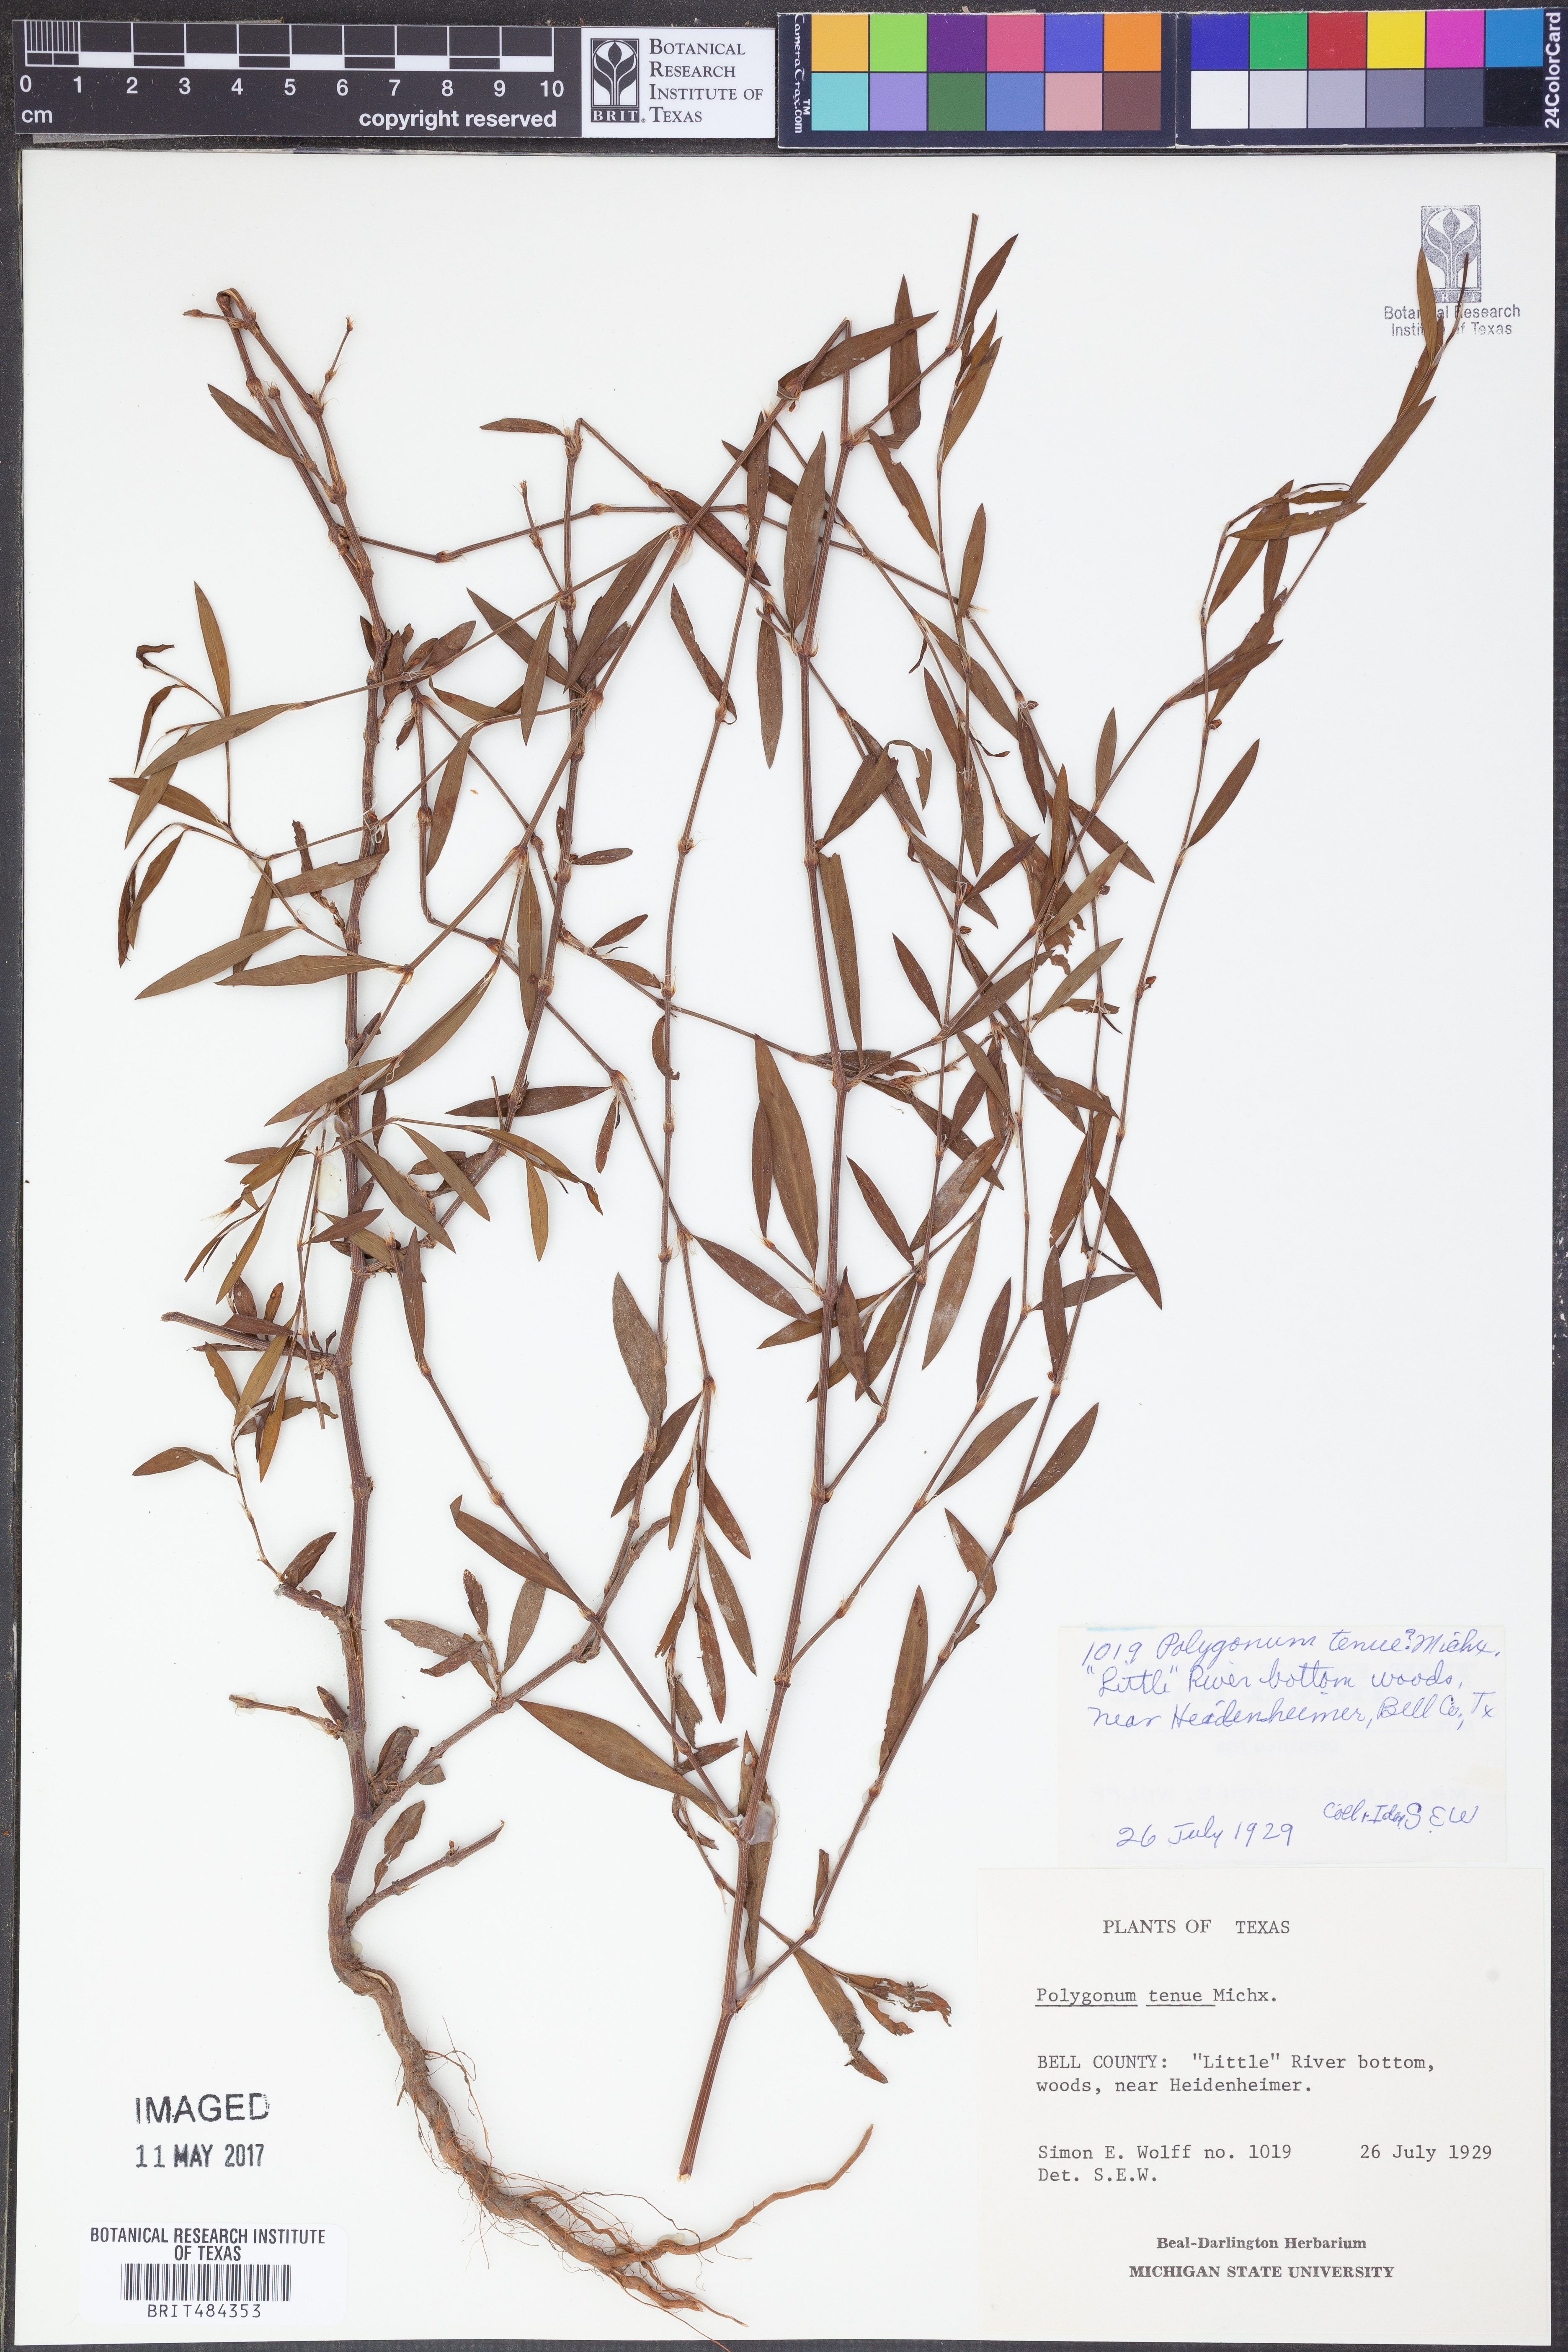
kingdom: Plantae
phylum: Tracheophyta
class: Magnoliopsida
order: Caryophyllales
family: Polygonaceae
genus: Polygonum
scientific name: Polygonum tenue
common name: Pleat-leaved knotweed
